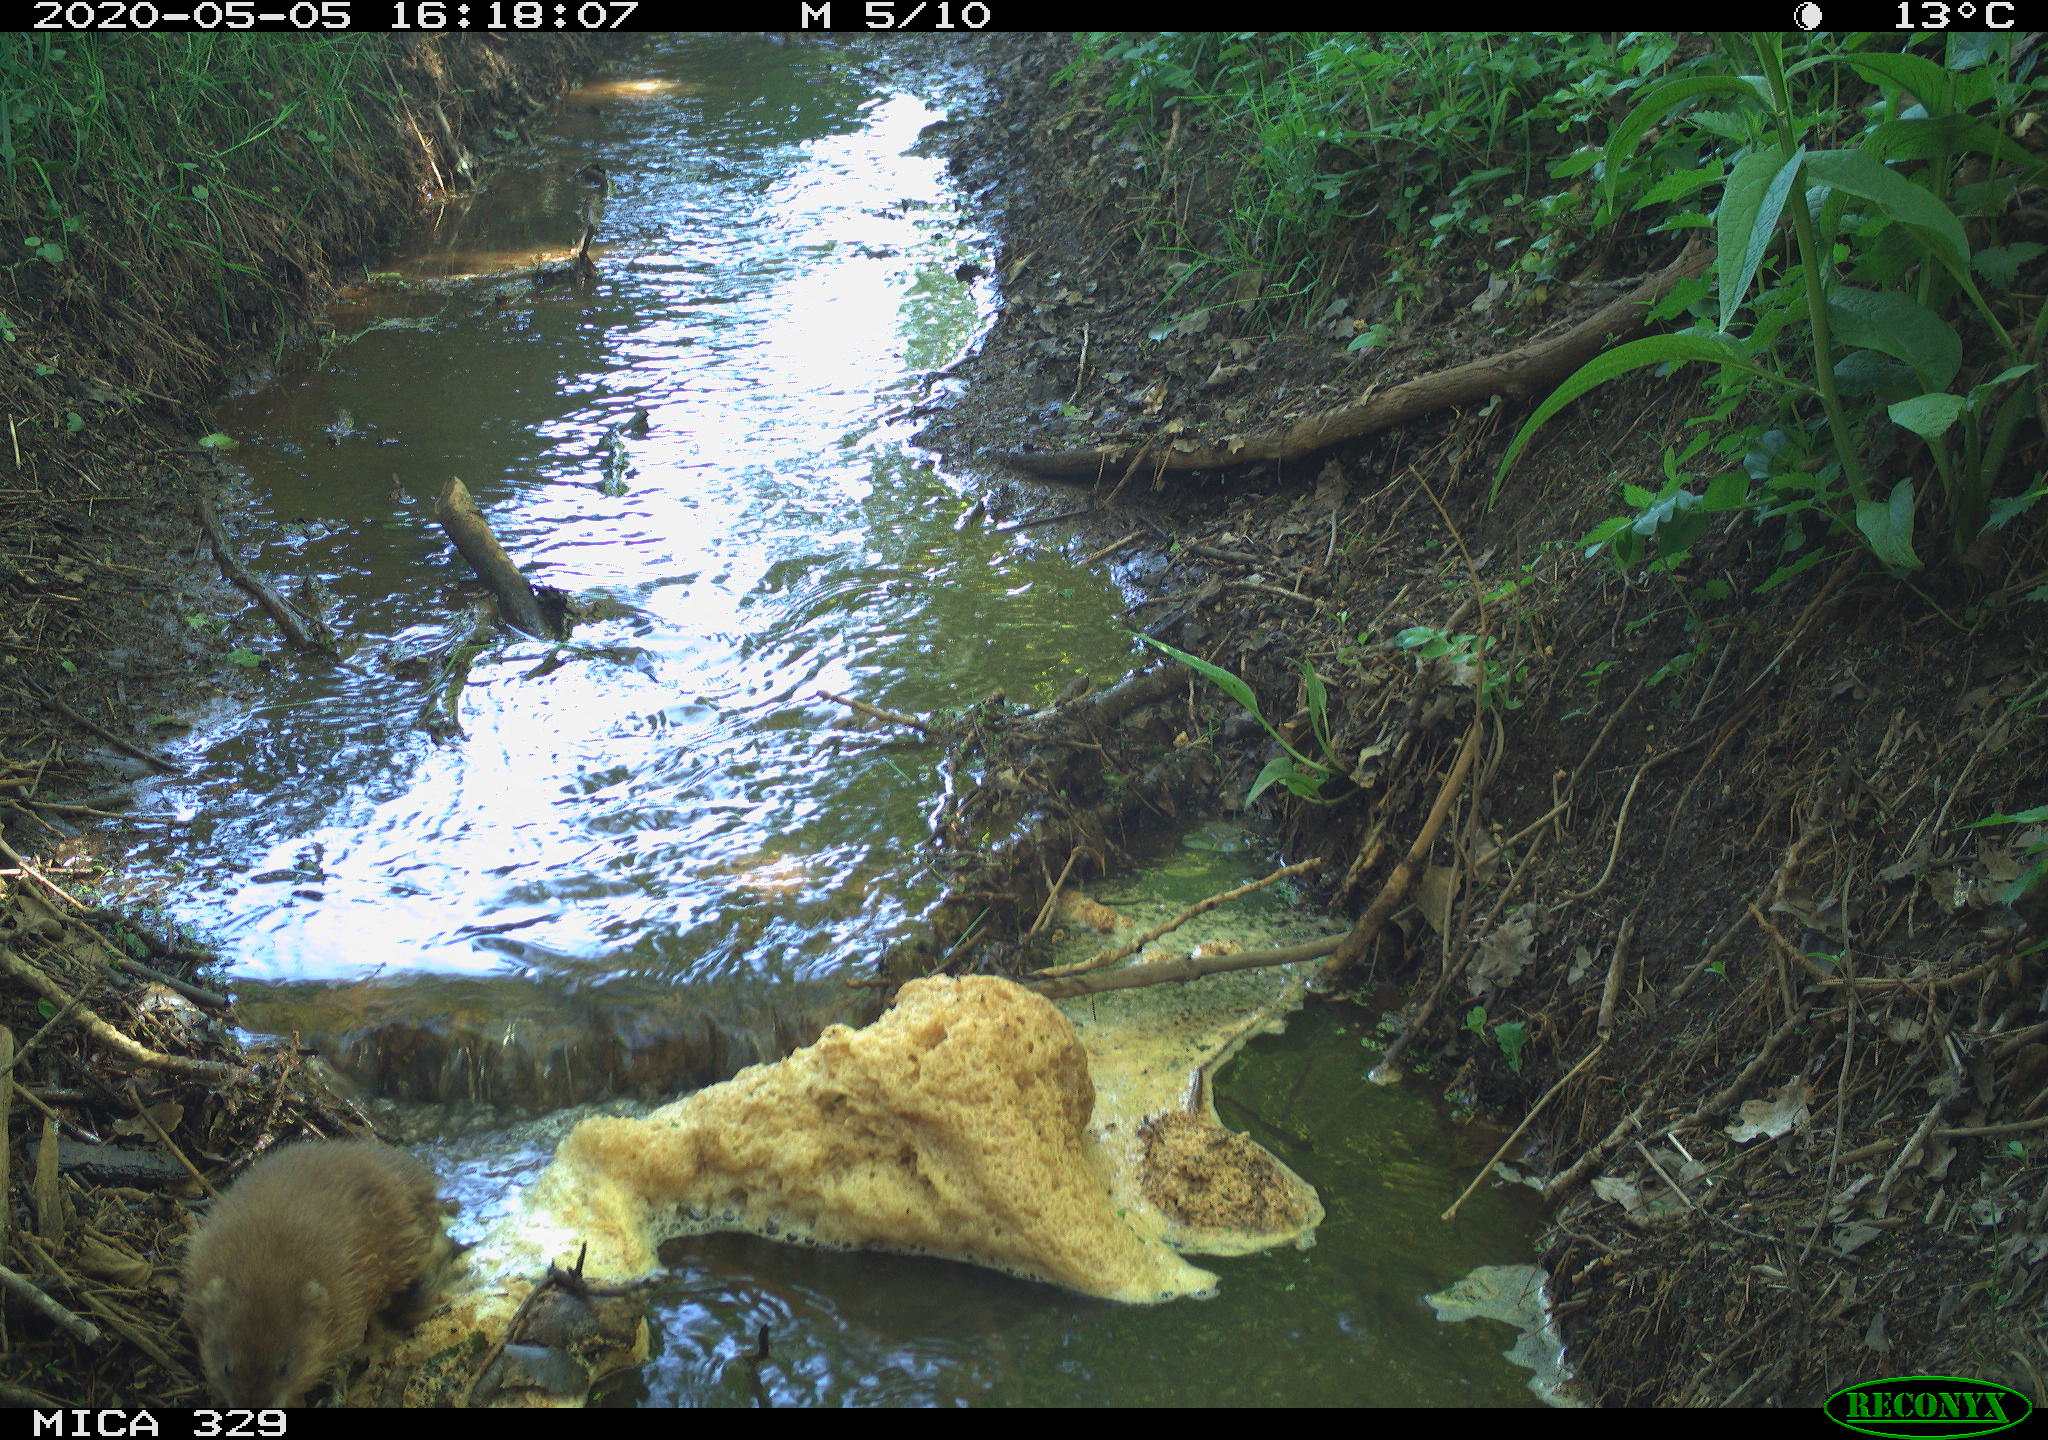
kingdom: Animalia
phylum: Chordata
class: Mammalia
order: Rodentia
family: Cricetidae
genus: Ondatra
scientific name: Ondatra zibethicus
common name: Muskrat
